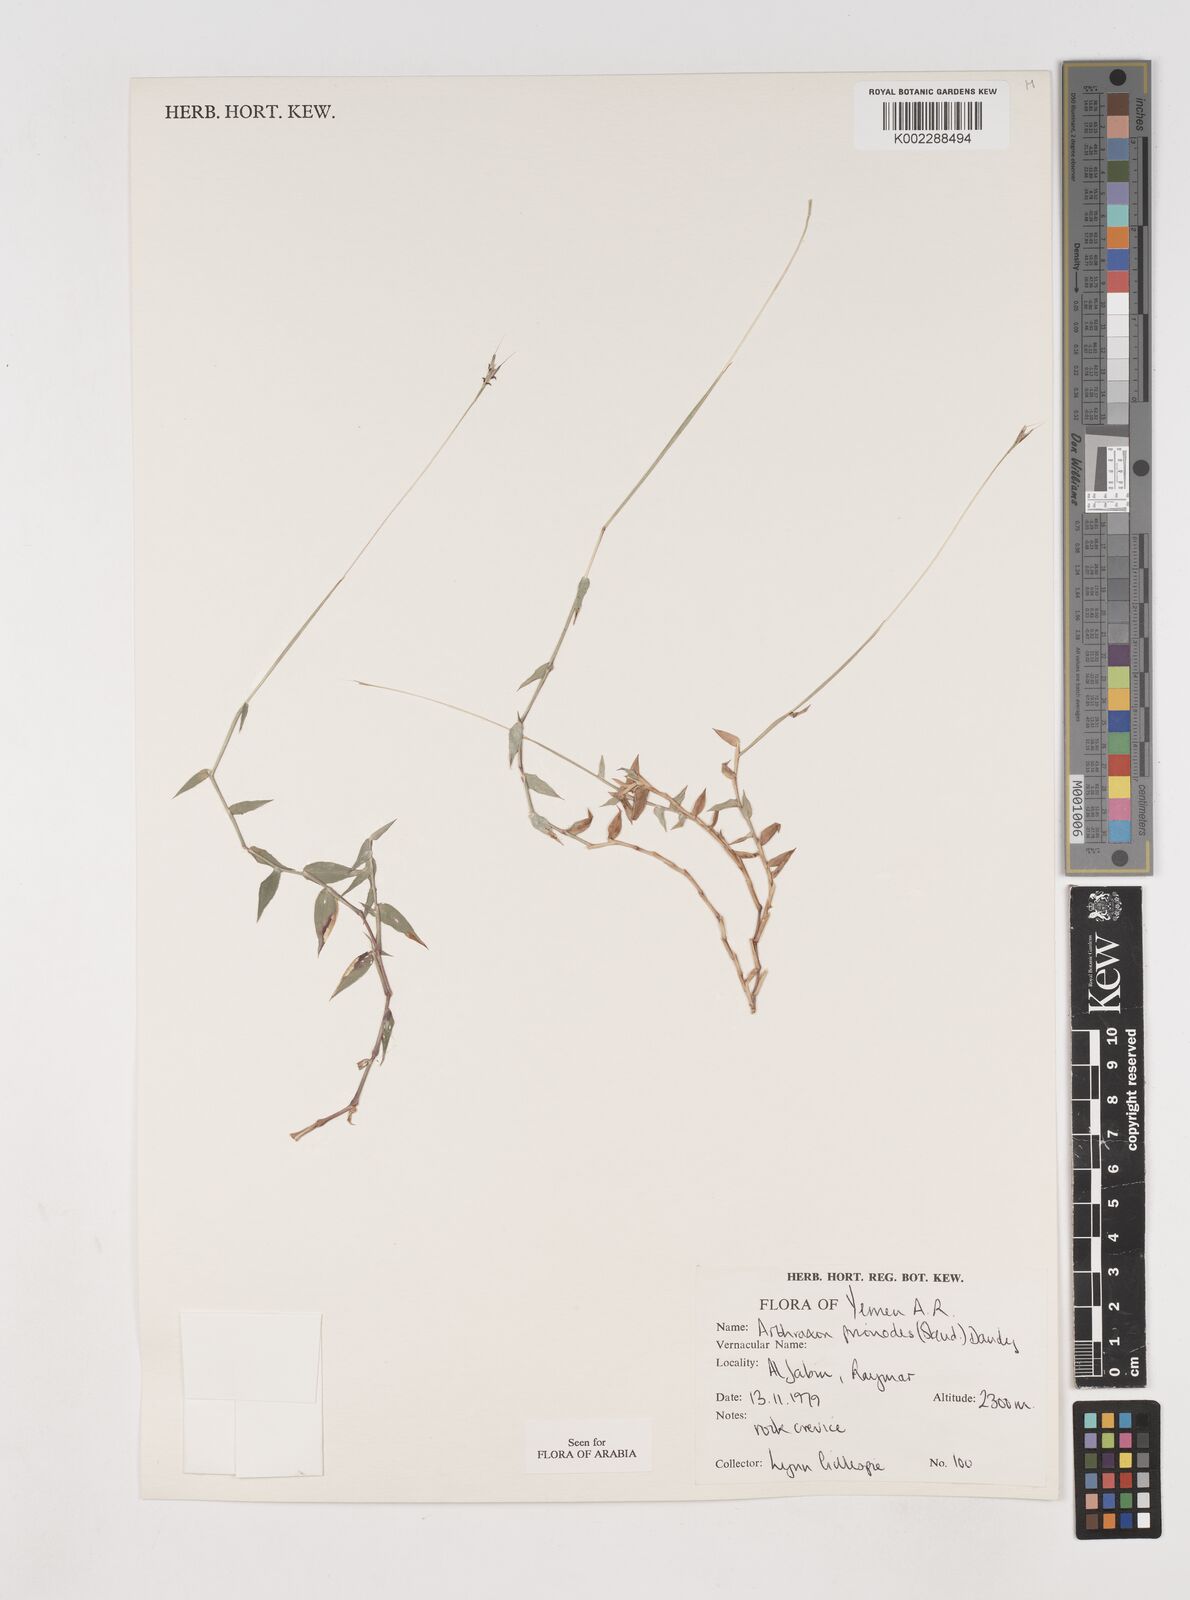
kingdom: Plantae
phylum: Tracheophyta
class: Liliopsida
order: Poales
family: Poaceae
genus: Arthraxon
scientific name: Arthraxon prionodes
